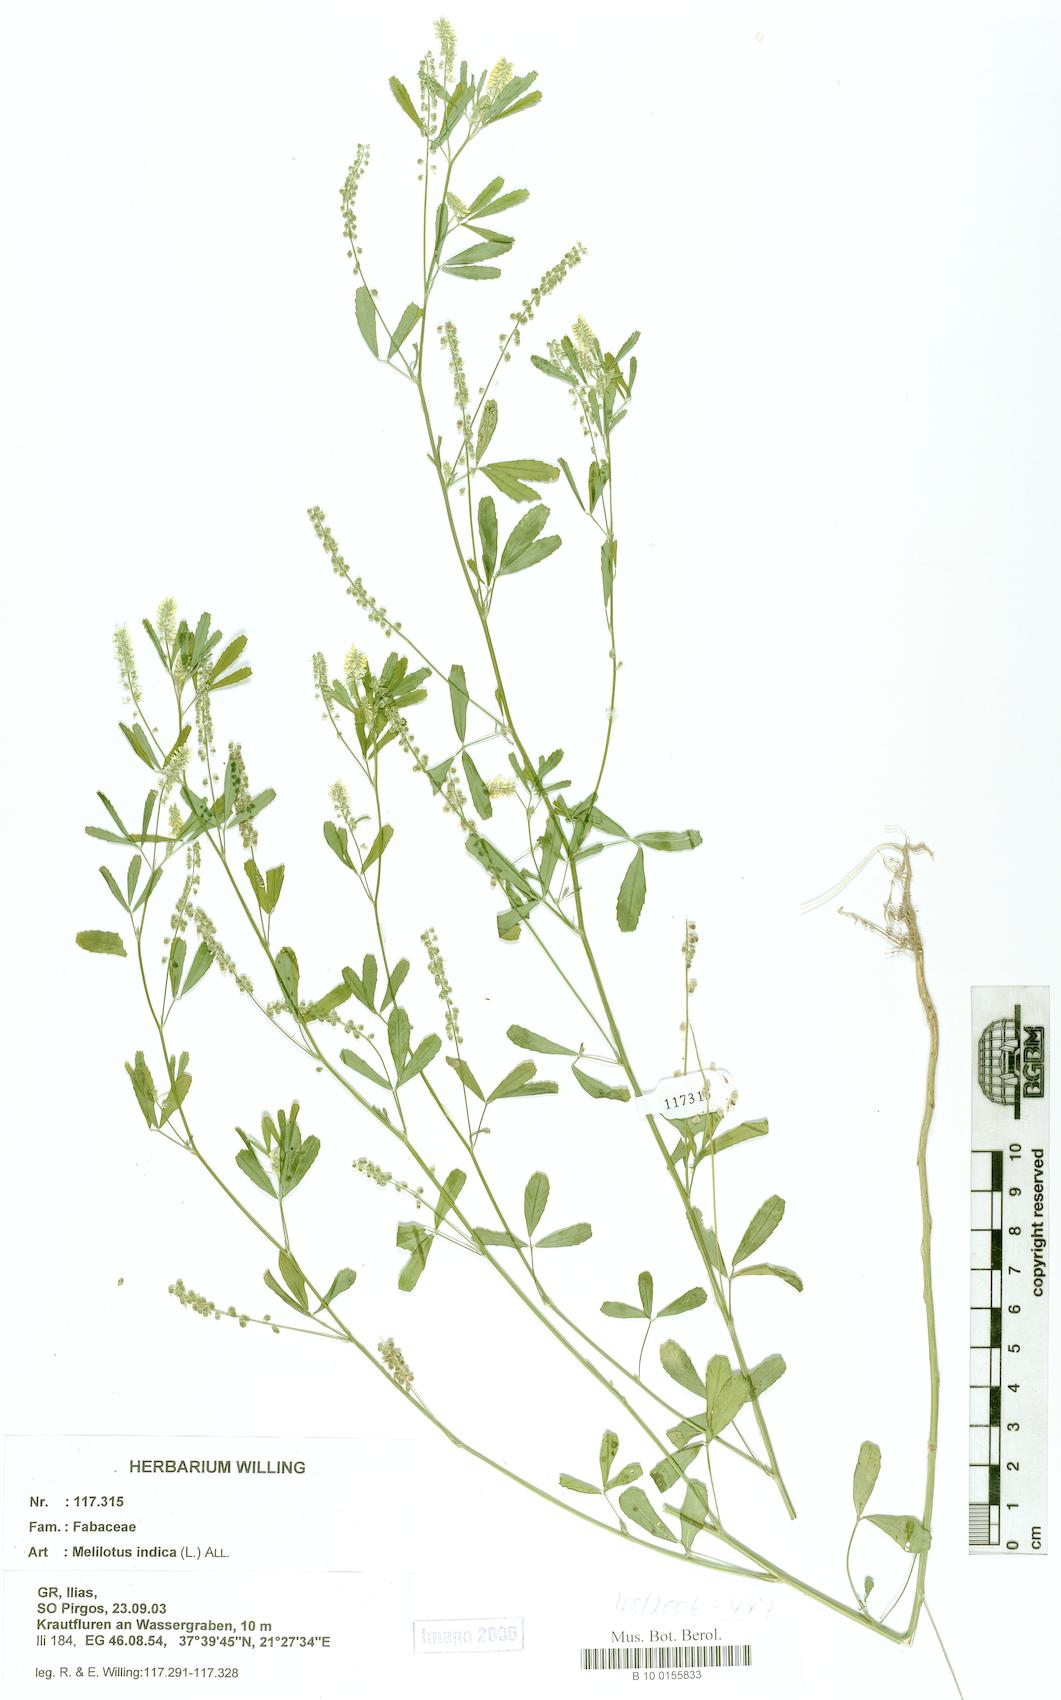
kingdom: Plantae
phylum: Tracheophyta
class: Magnoliopsida
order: Fabales
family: Fabaceae
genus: Melilotus
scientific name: Melilotus indicus
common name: Small melilot
